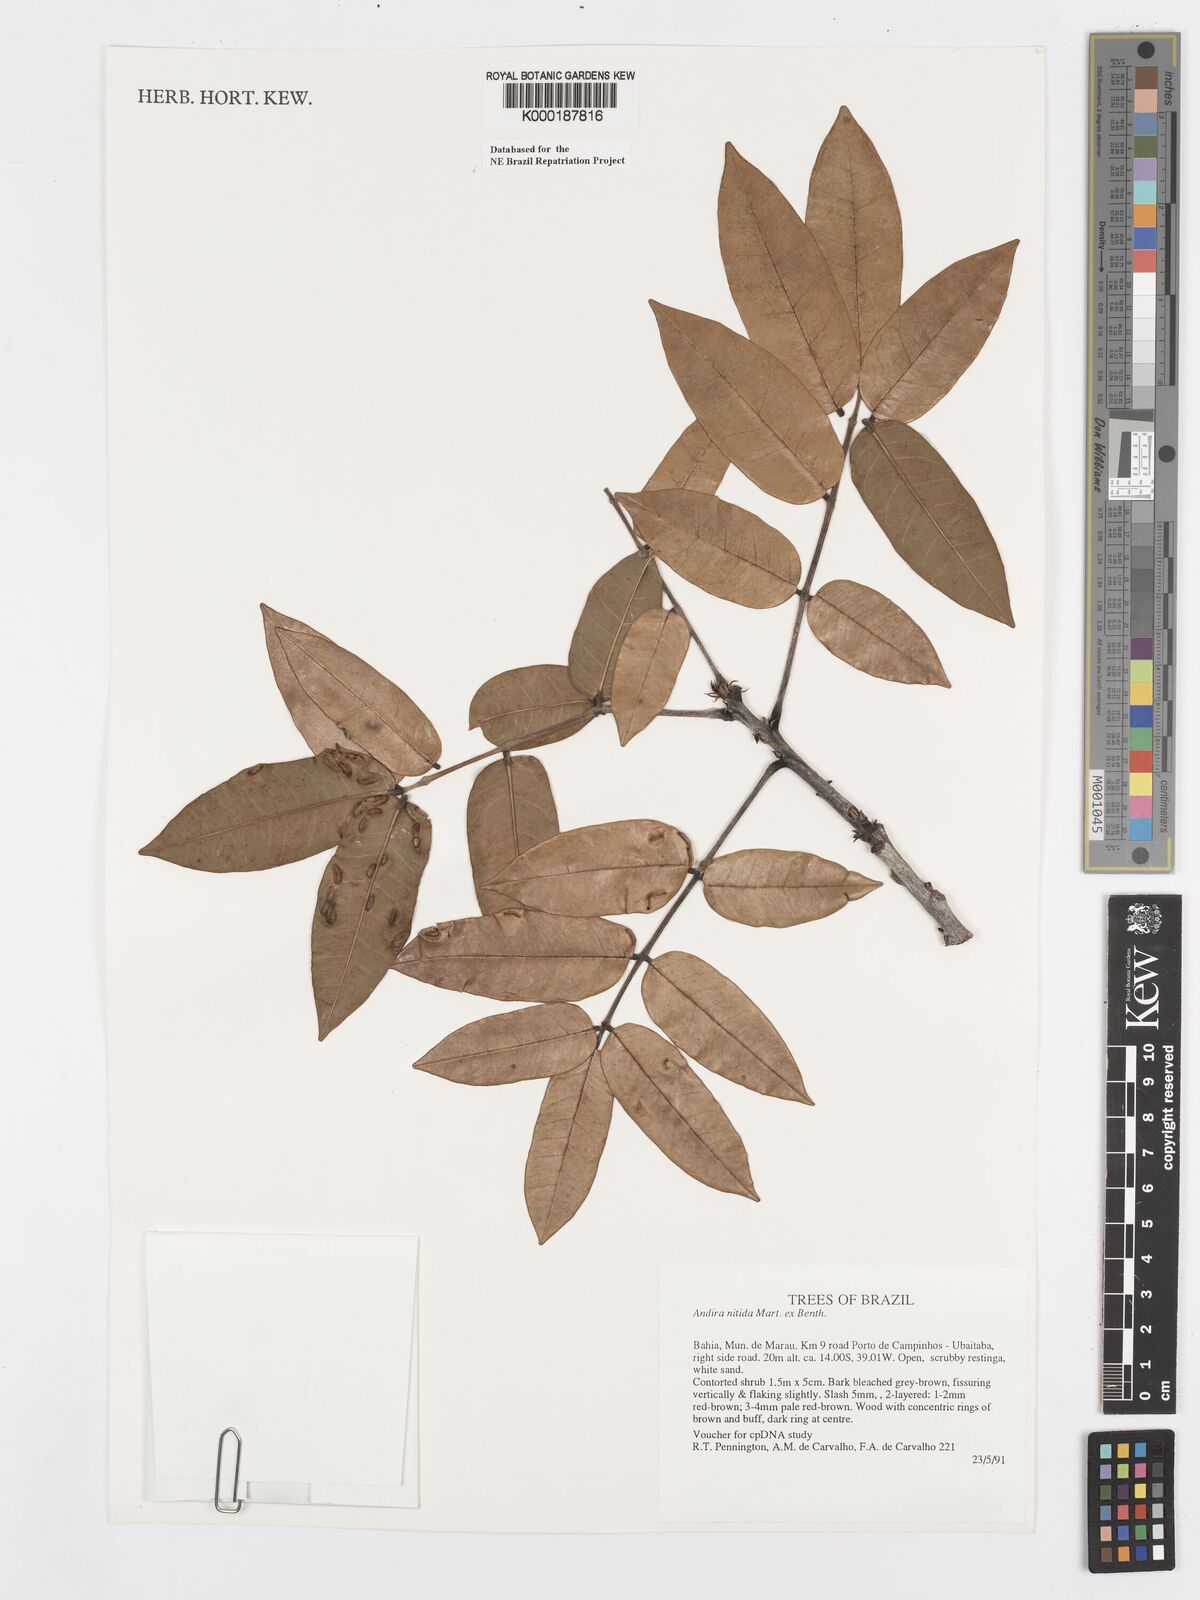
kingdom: Plantae
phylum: Tracheophyta
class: Magnoliopsida
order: Fabales
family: Fabaceae
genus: Andira
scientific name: Andira nitida
